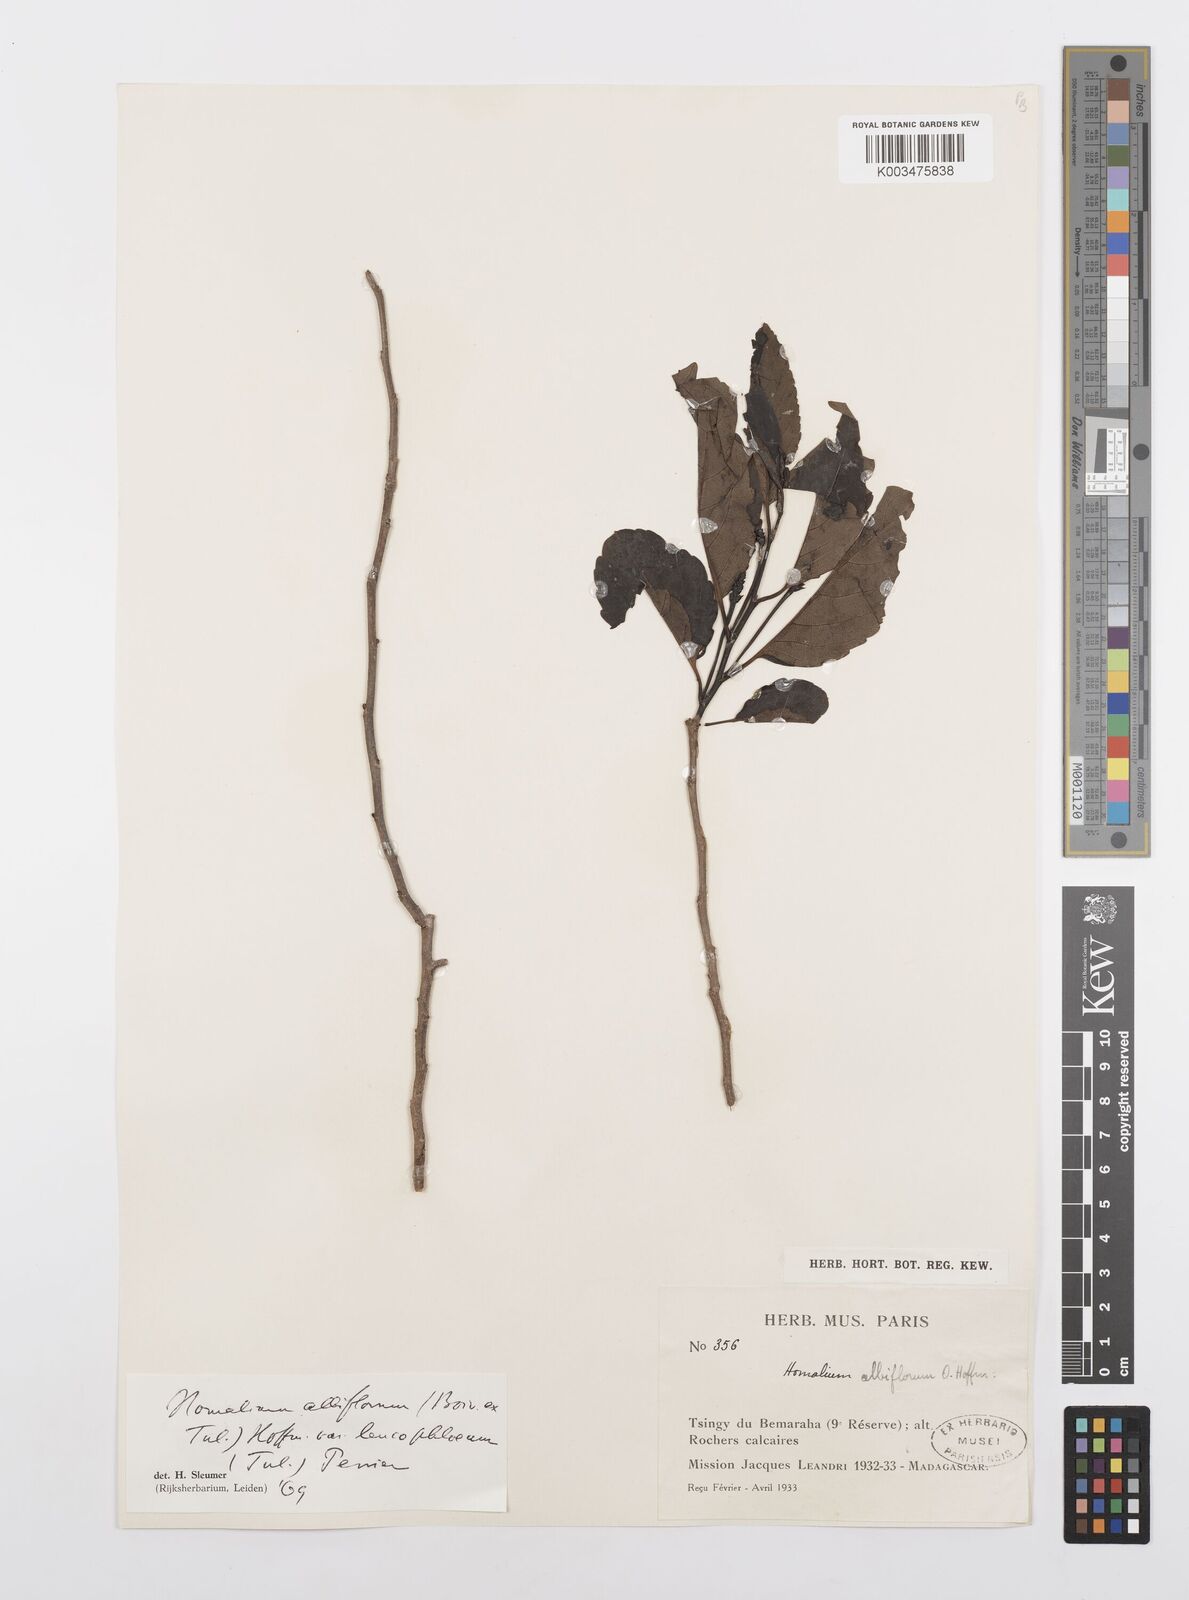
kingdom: Plantae
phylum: Tracheophyta
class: Magnoliopsida
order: Malpighiales
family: Salicaceae
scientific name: Salicaceae
